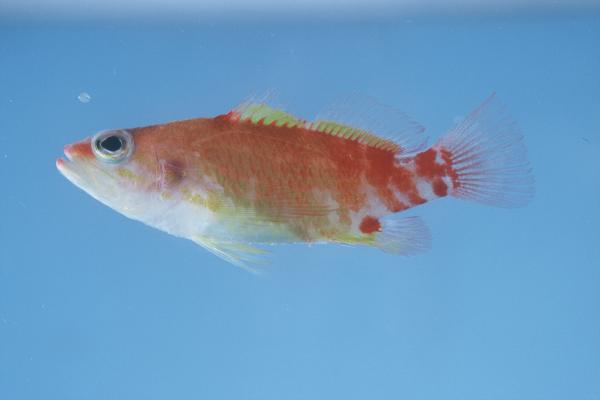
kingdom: Animalia
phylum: Chordata
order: Perciformes
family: Serranidae
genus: Plectranthias
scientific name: Plectranthias winniensis
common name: Redblotch perchlet
